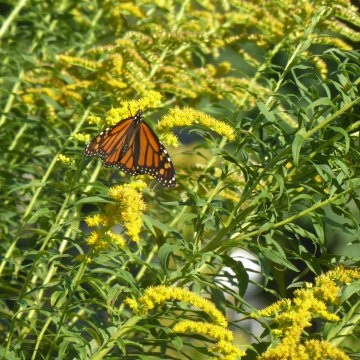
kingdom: Animalia
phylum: Arthropoda
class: Insecta
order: Lepidoptera
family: Nymphalidae
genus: Danaus
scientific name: Danaus plexippus
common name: Monarch
